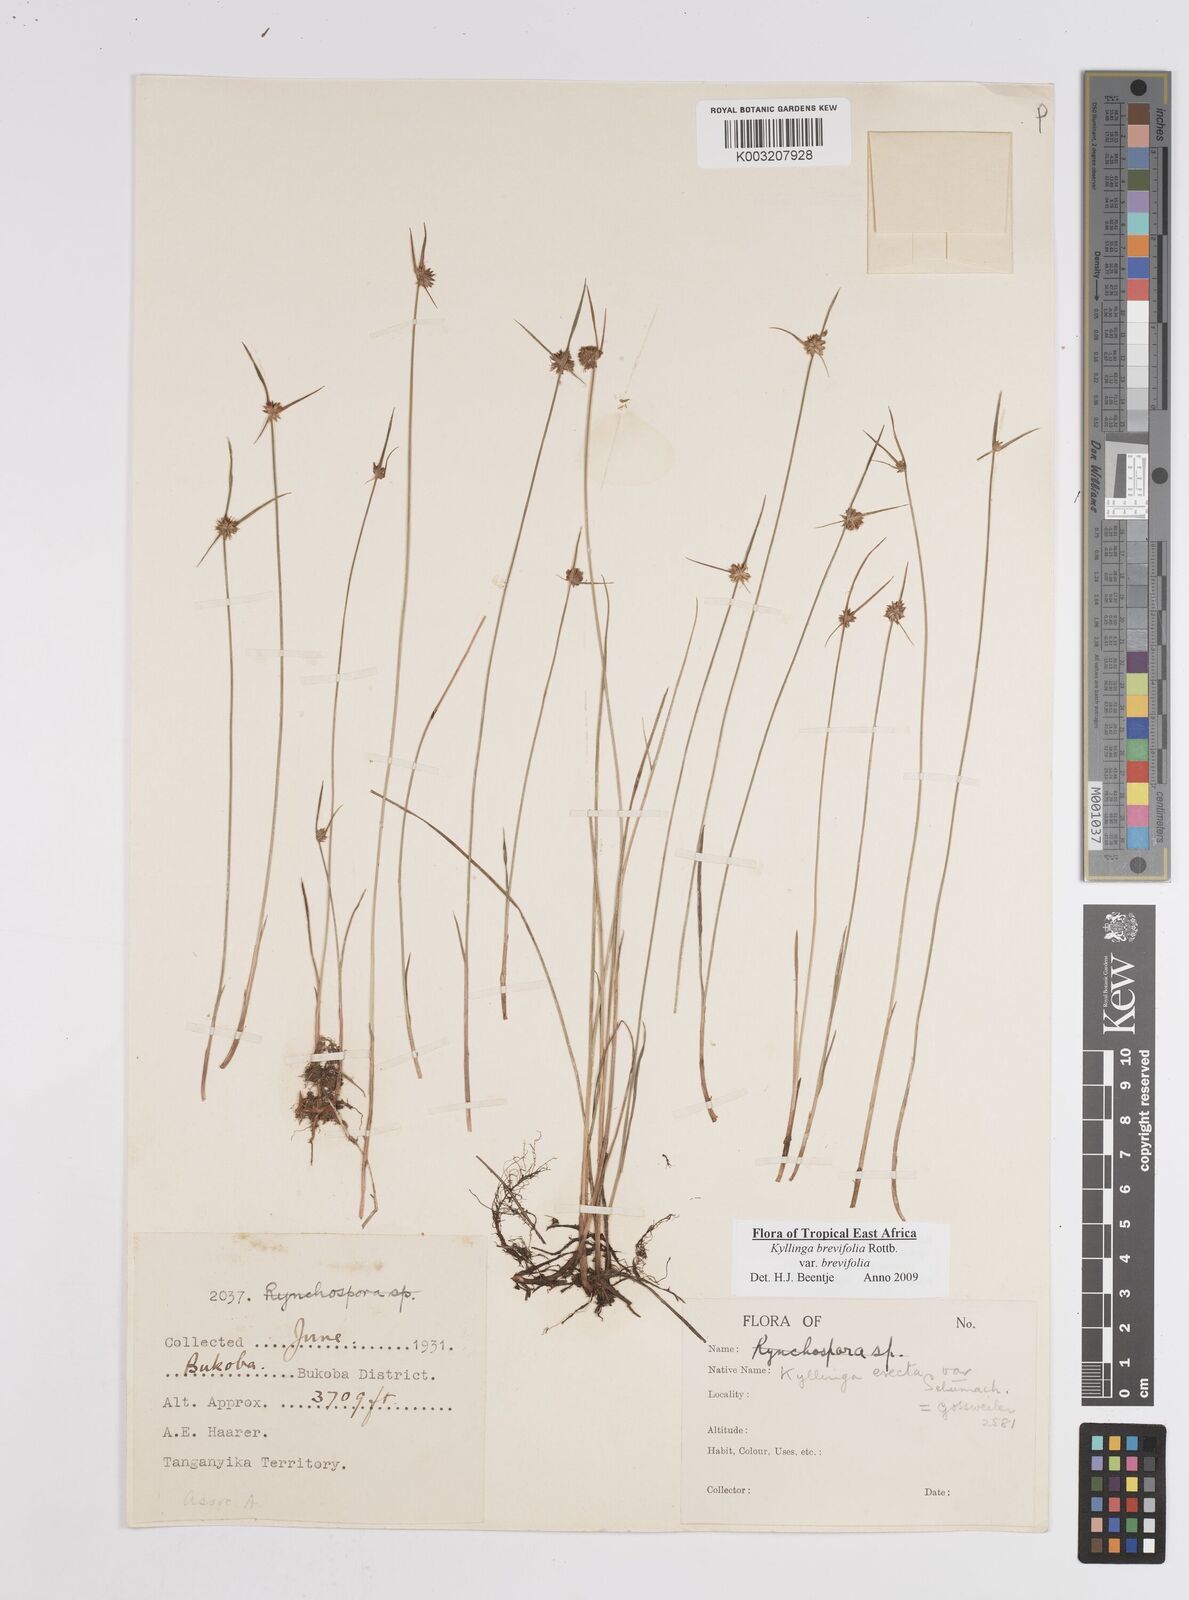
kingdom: Plantae
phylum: Tracheophyta
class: Liliopsida
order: Poales
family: Cyperaceae
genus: Cyperus
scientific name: Cyperus brevifolius
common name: Globe kyllinga
